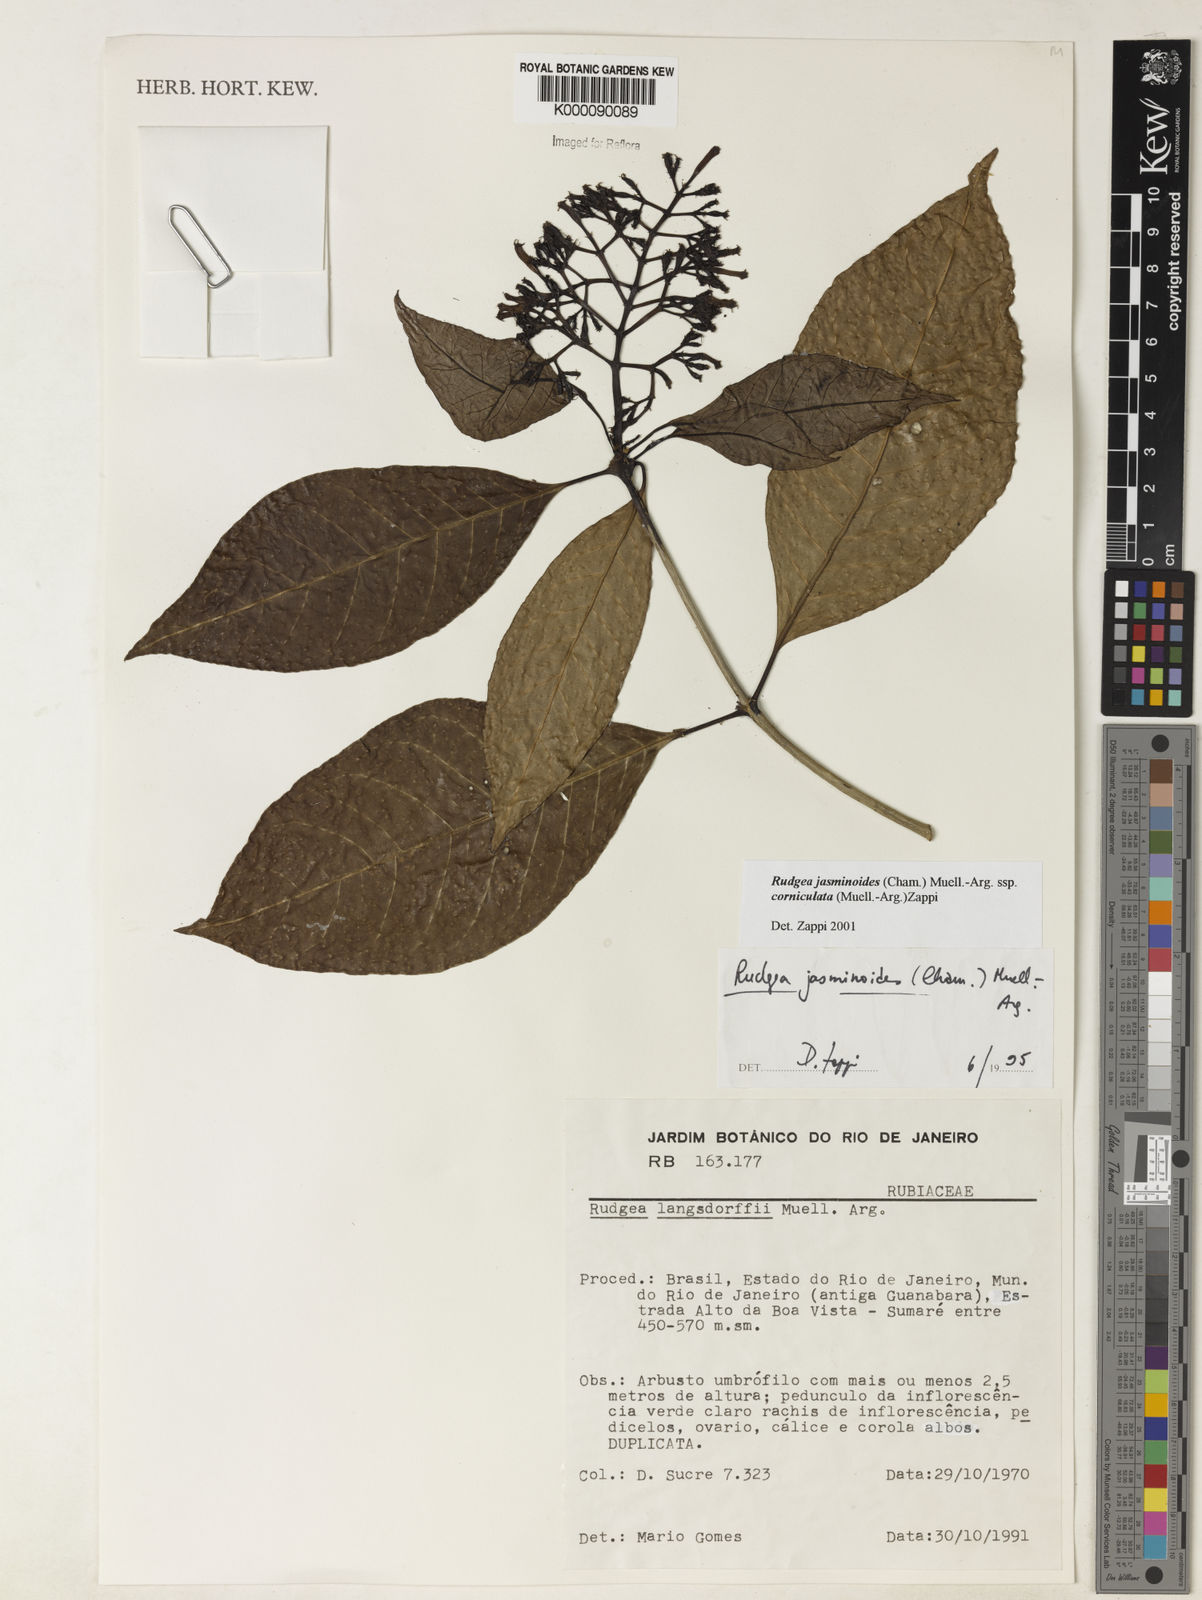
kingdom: Plantae
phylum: Tracheophyta
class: Magnoliopsida
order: Gentianales
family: Rubiaceae
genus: Rudgea
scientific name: Rudgea jasminoides
